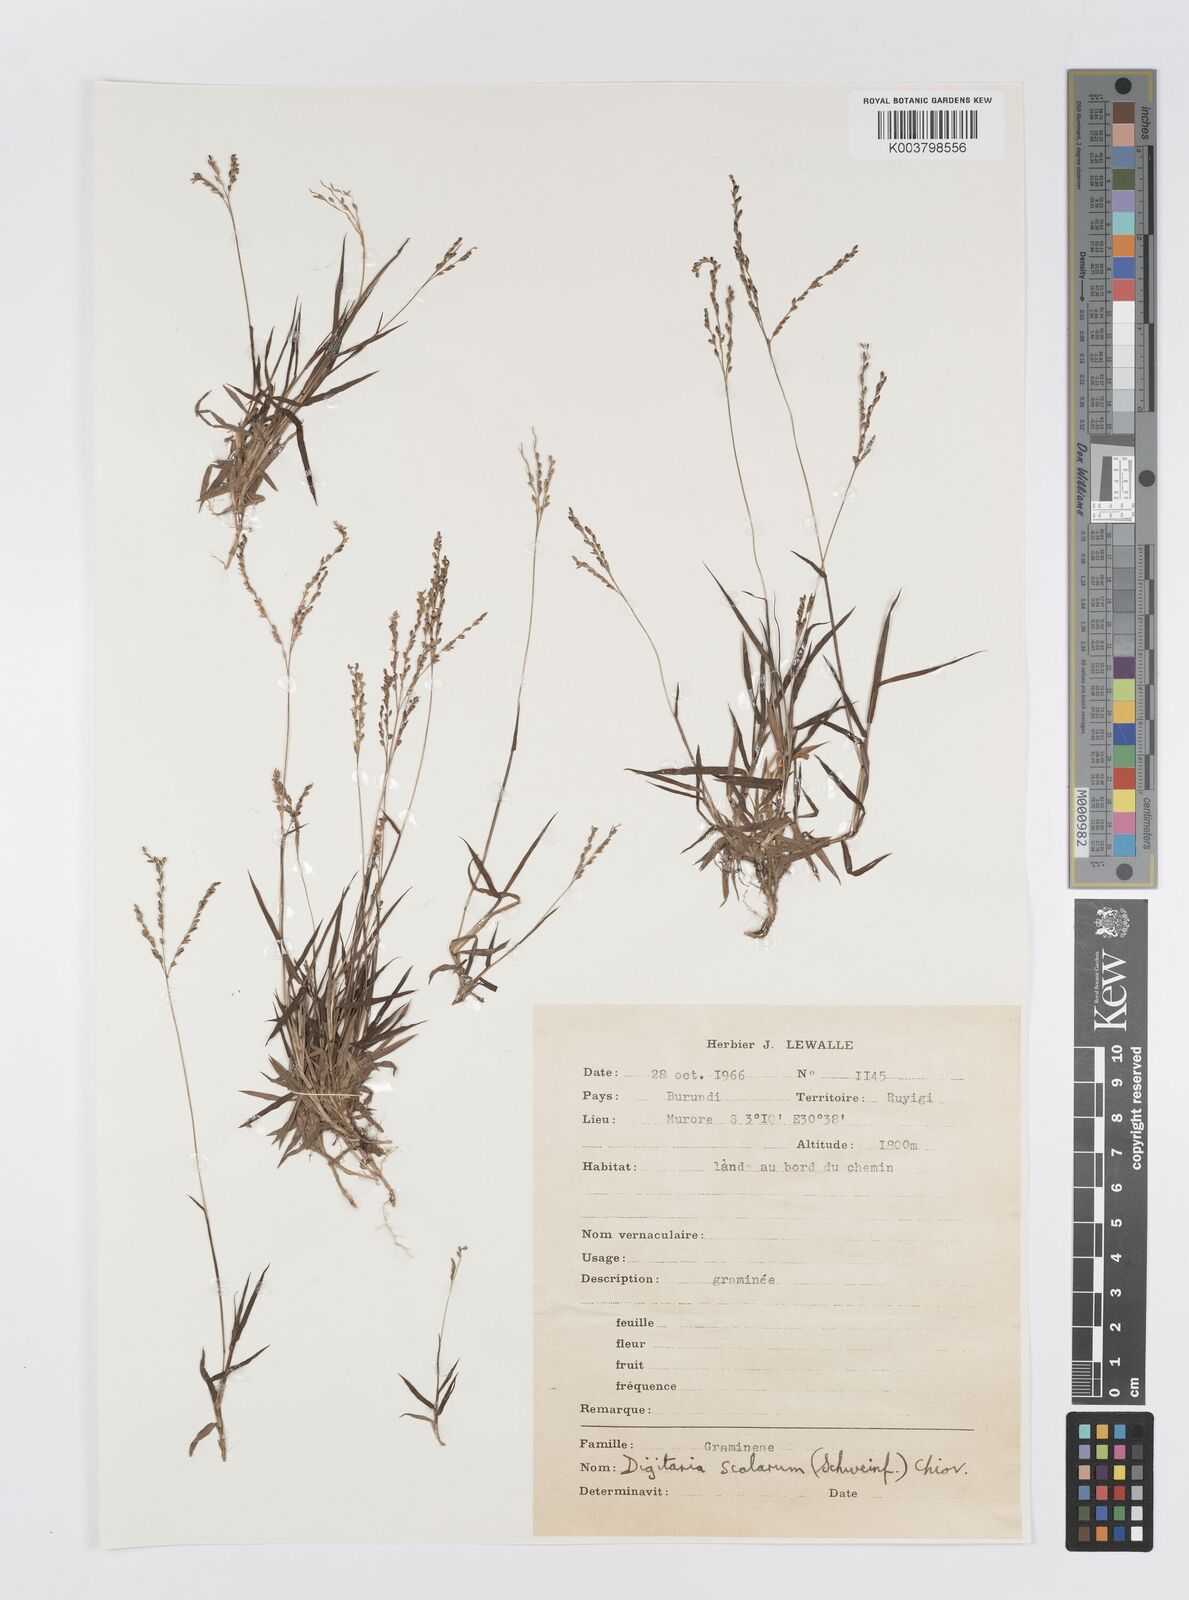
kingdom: Plantae
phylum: Tracheophyta
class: Liliopsida
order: Poales
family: Poaceae
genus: Digitaria
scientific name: Digitaria abyssinica
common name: African couchgrass
